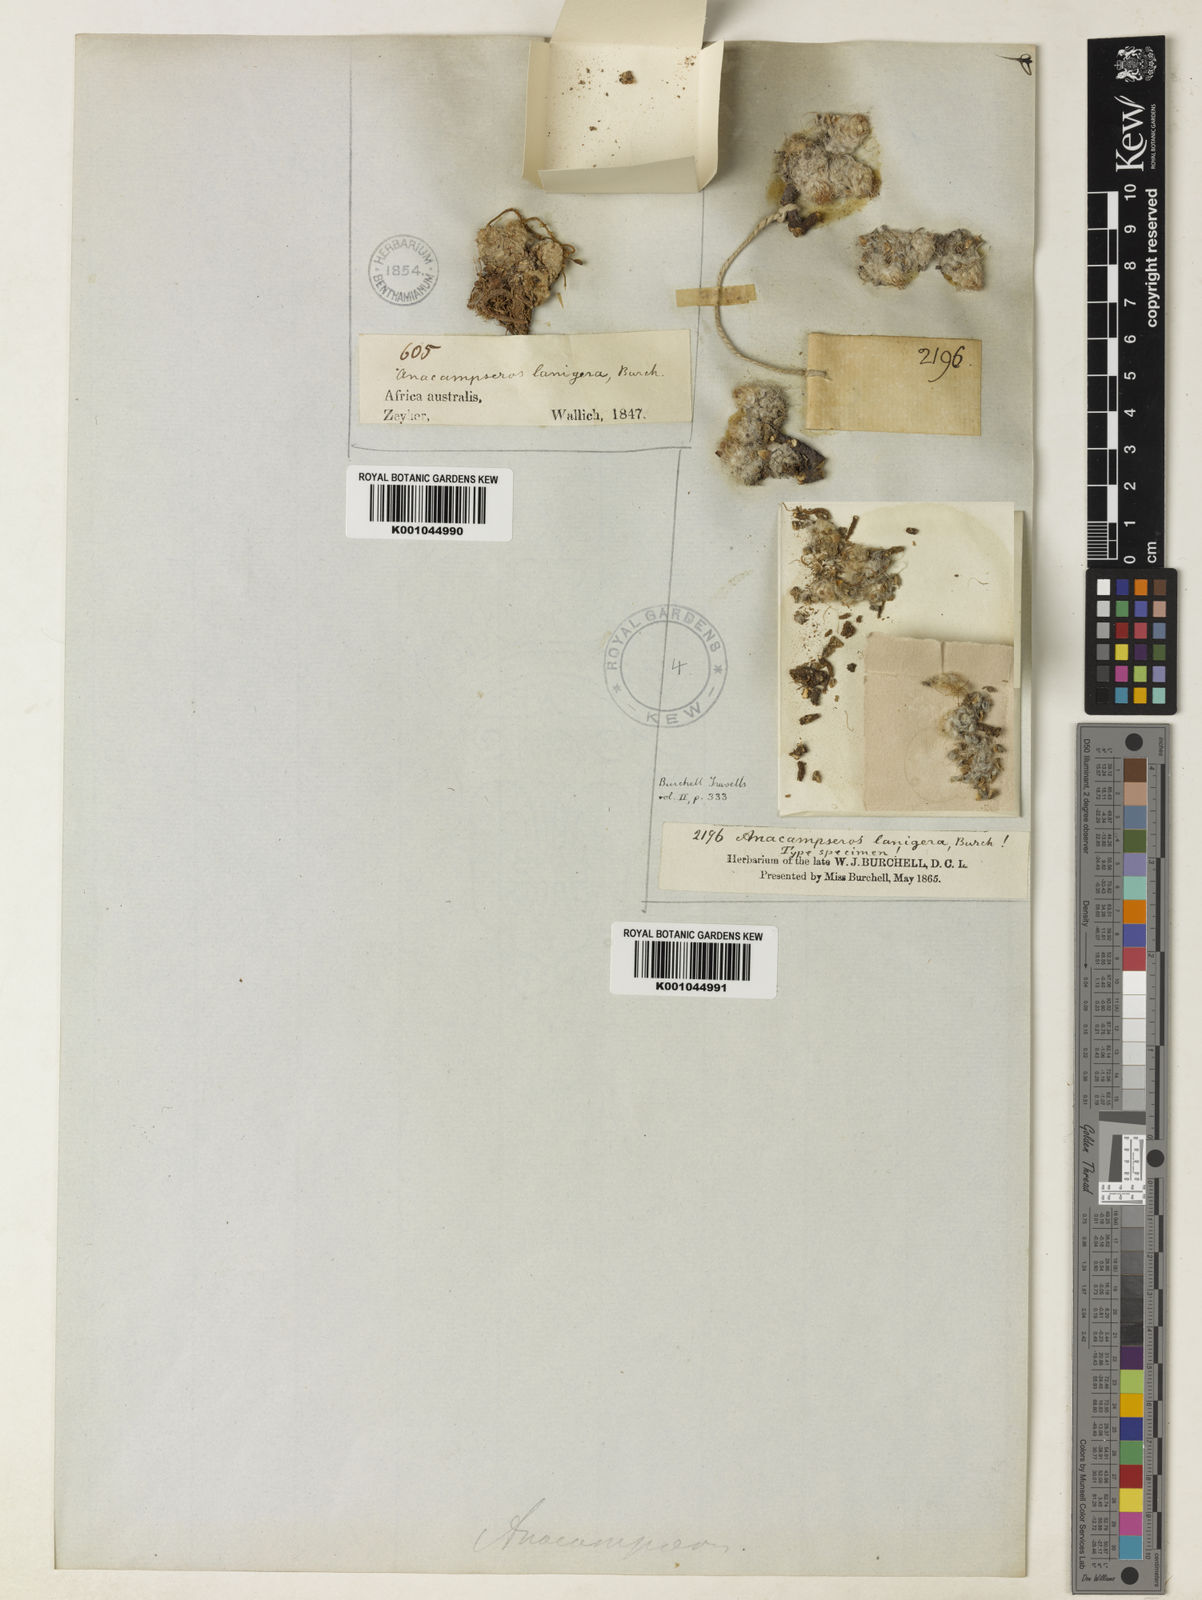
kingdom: Plantae
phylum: Tracheophyta
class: Magnoliopsida
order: Caryophyllales
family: Anacampserotaceae
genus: Anacampseros
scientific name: Anacampseros filamentosa
